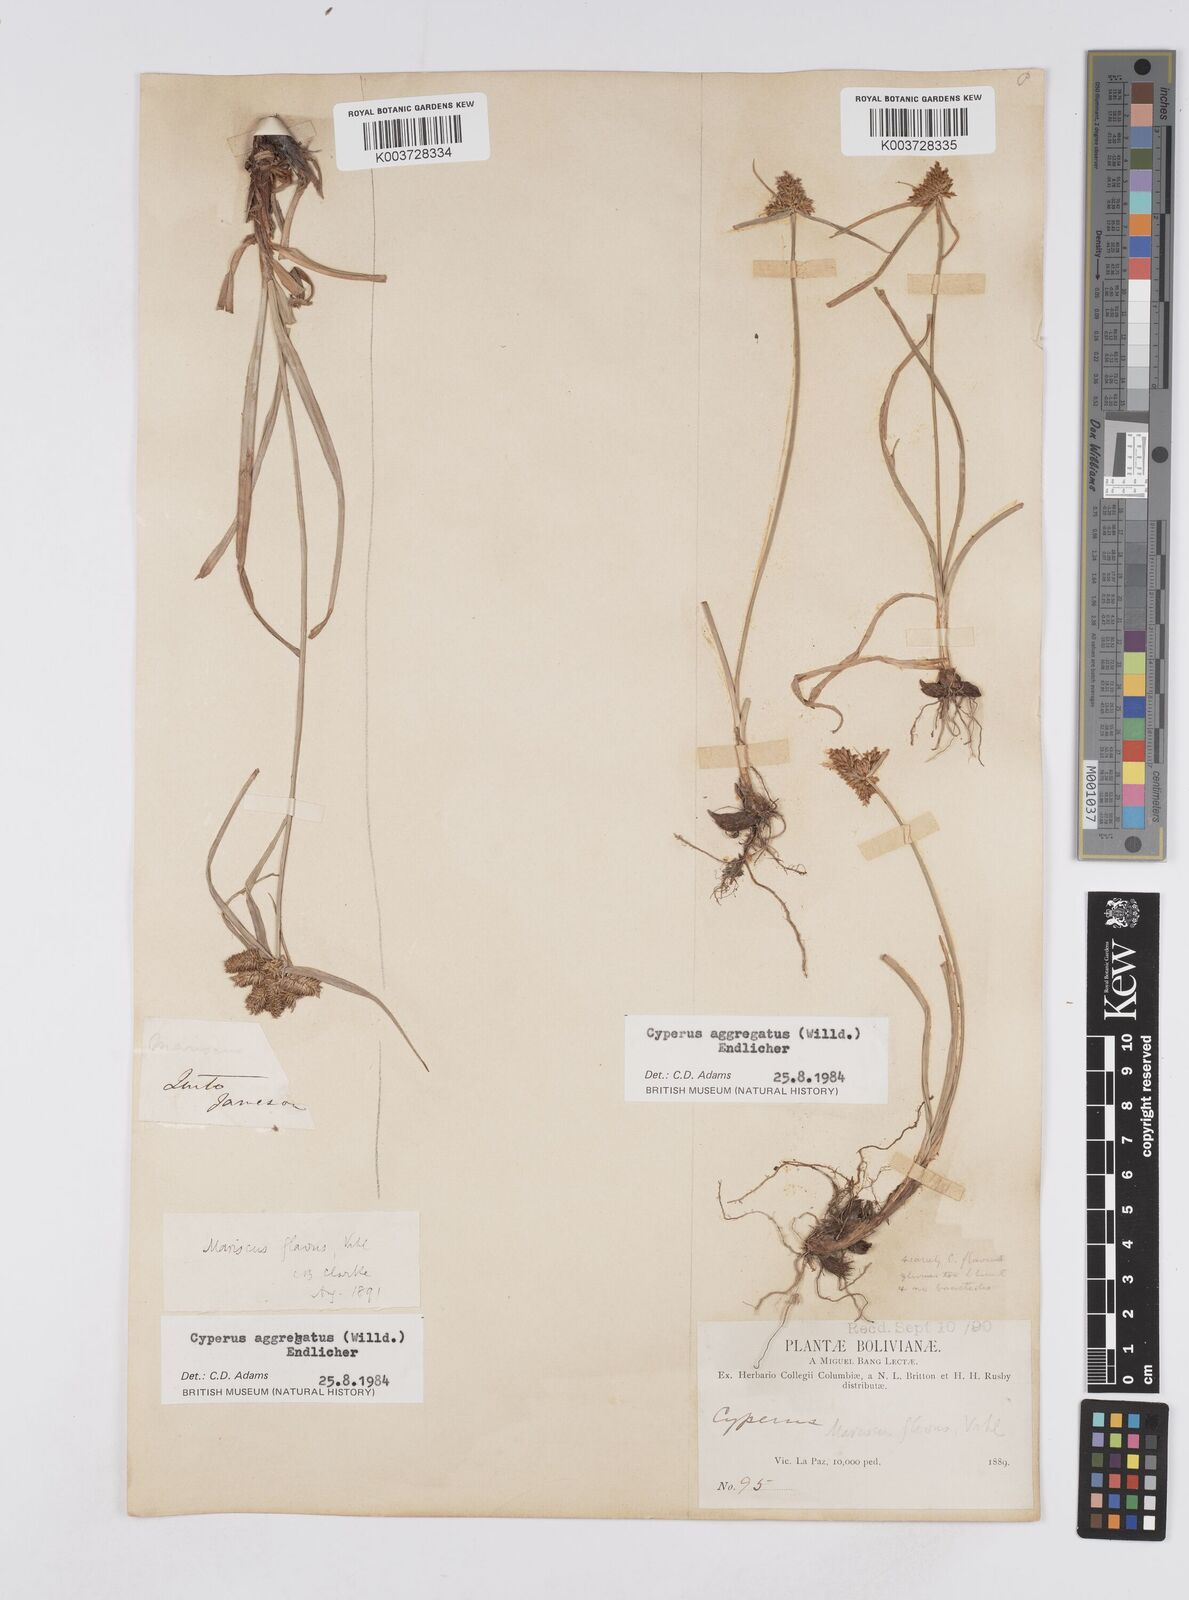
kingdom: Plantae
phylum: Tracheophyta
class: Liliopsida
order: Poales
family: Cyperaceae
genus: Cyperus
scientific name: Cyperus aggregatus
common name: Inflatedscale flatsedge
